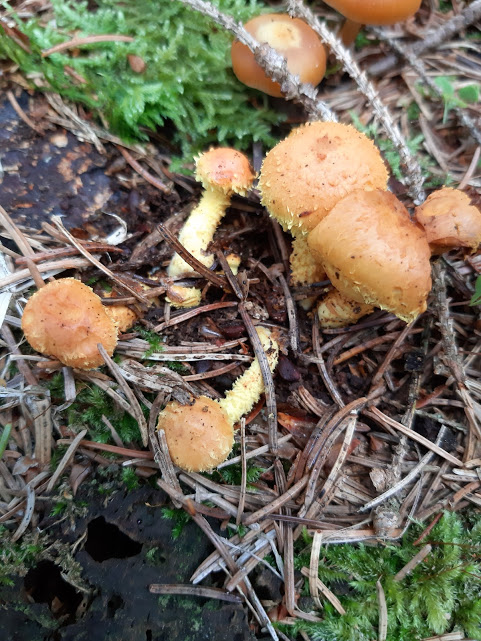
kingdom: Fungi
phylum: Basidiomycota
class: Agaricomycetes
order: Agaricales
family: Strophariaceae
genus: Pholiota
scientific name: Pholiota flammans
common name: flamme-skælhat
